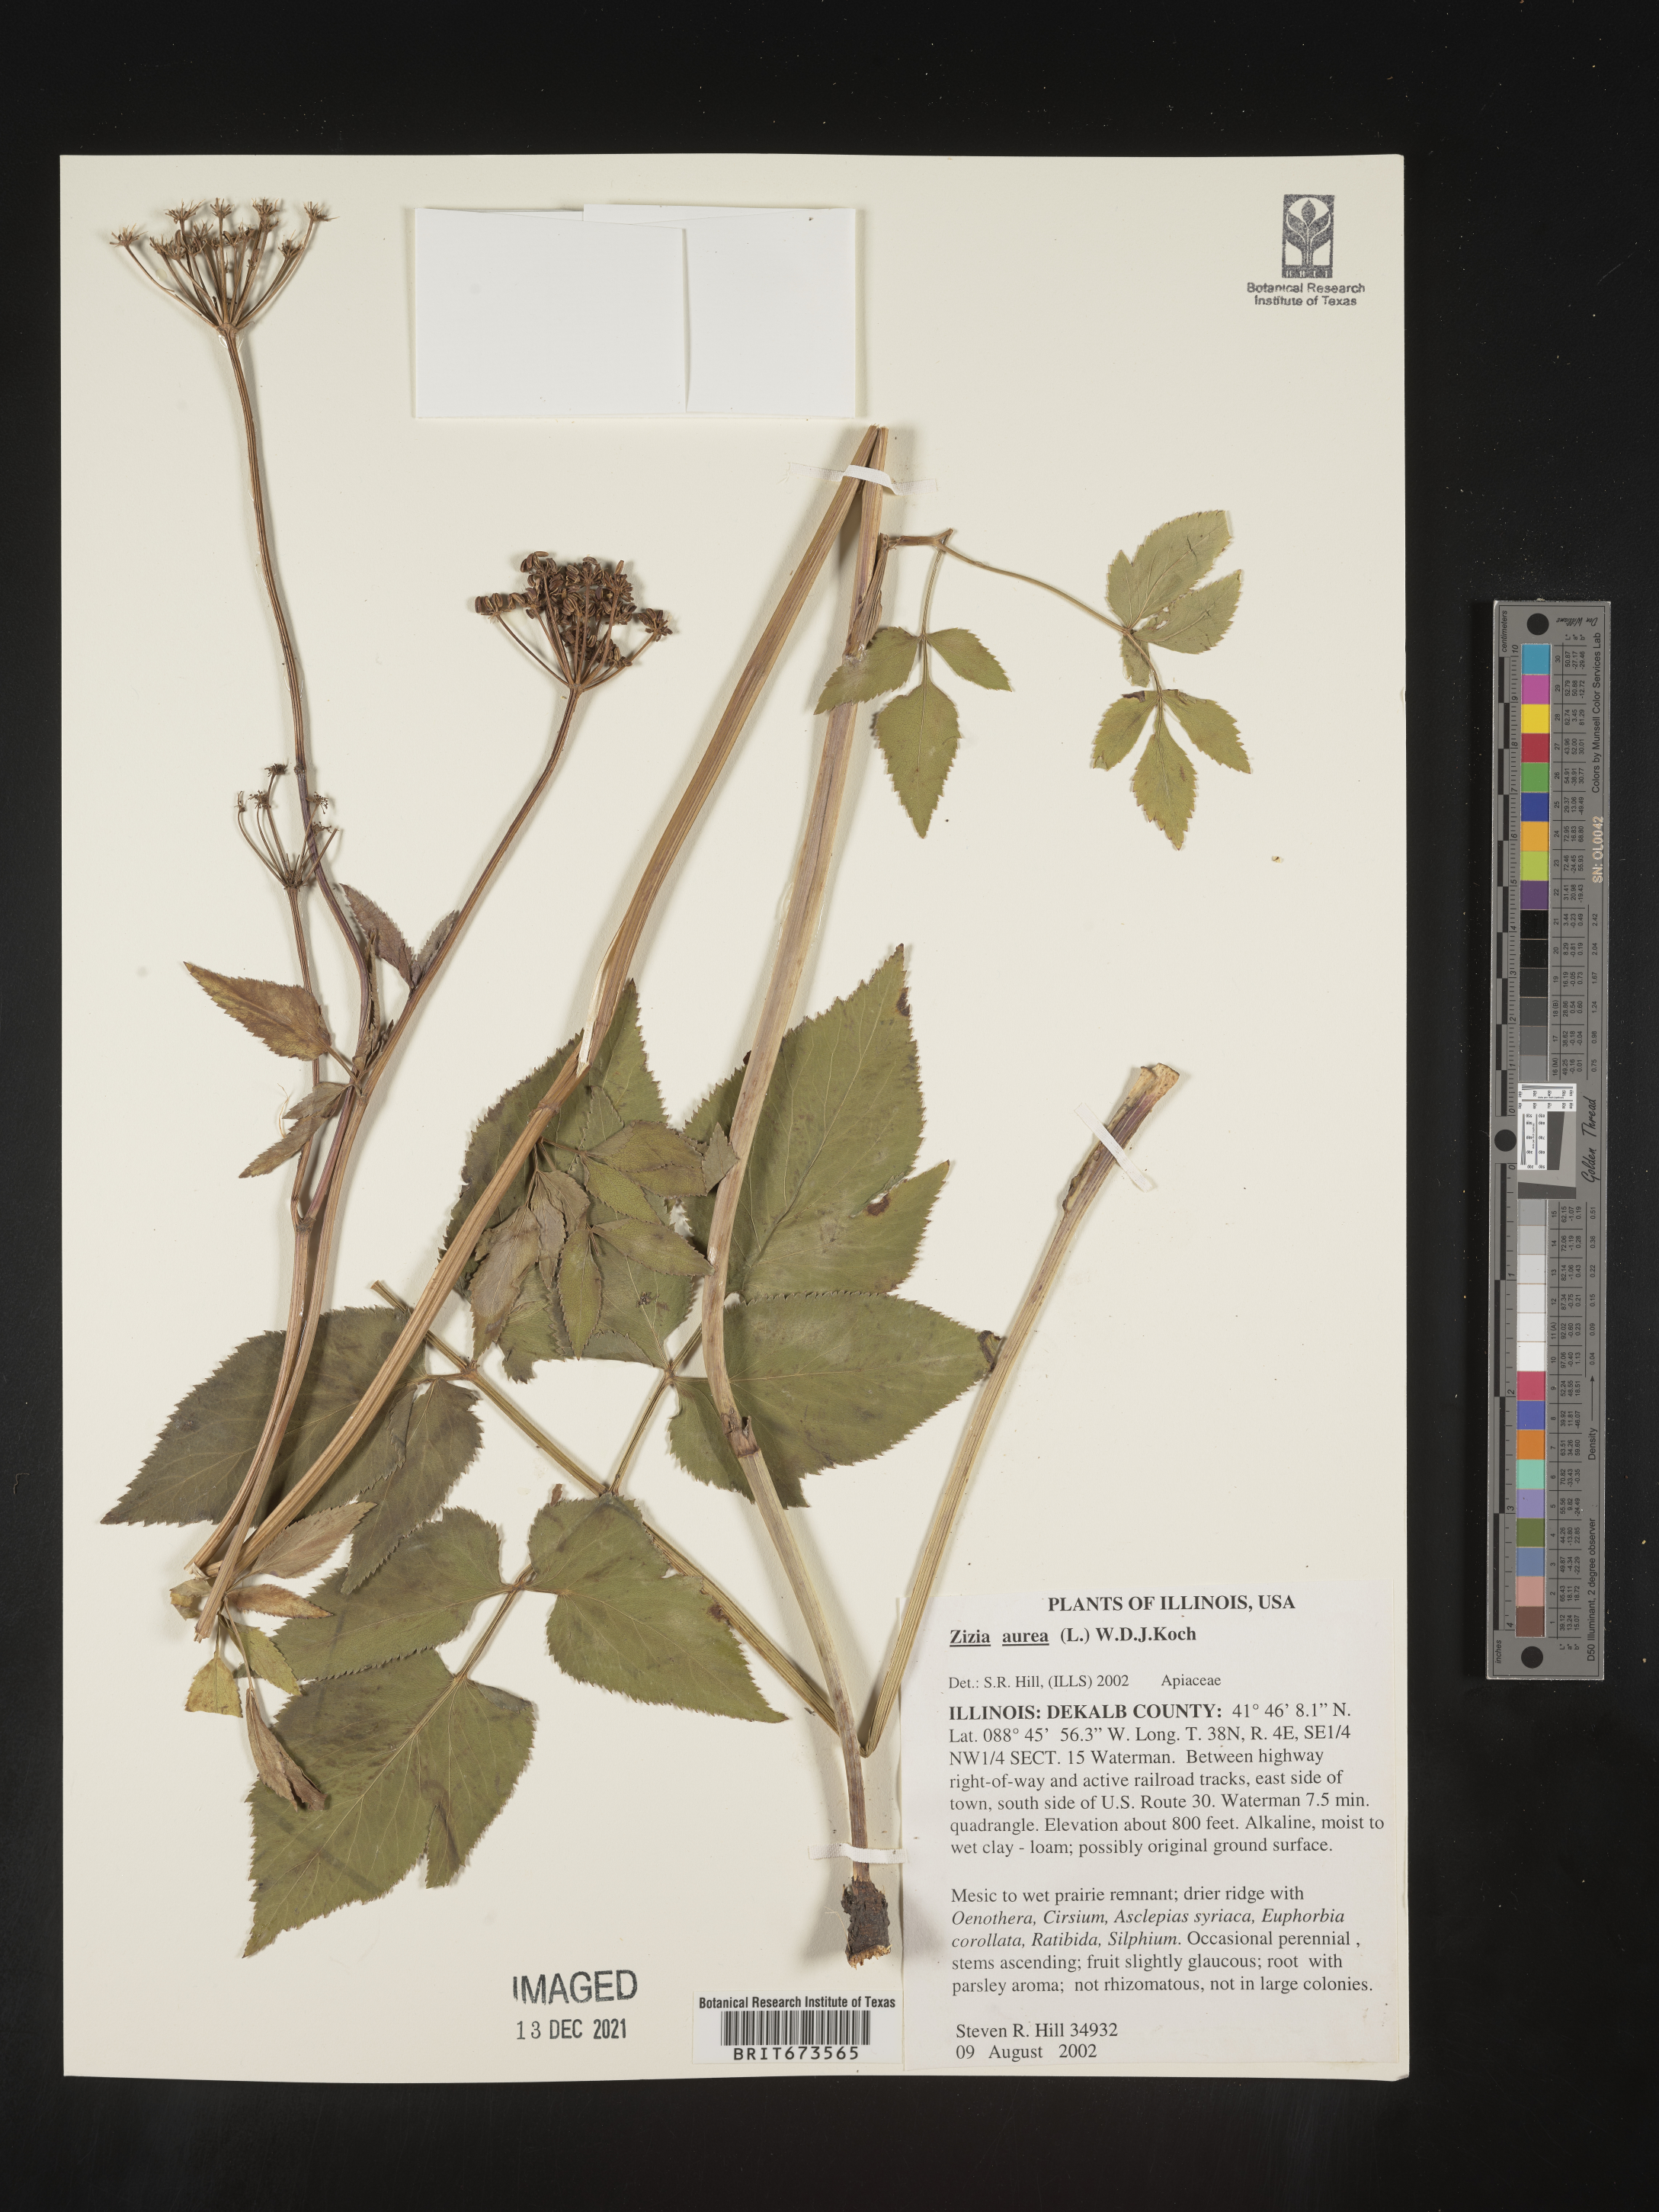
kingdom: Plantae
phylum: Tracheophyta
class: Magnoliopsida
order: Apiales
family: Apiaceae
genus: Zizia
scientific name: Zizia aurea
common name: Golden alexanders
